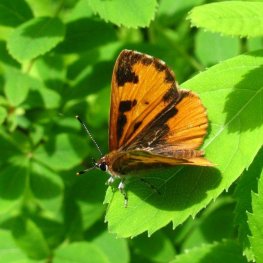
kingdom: Animalia
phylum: Arthropoda
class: Insecta
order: Lepidoptera
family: Lycaenidae
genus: Feniseca
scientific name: Feniseca tarquinius
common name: Harvester
